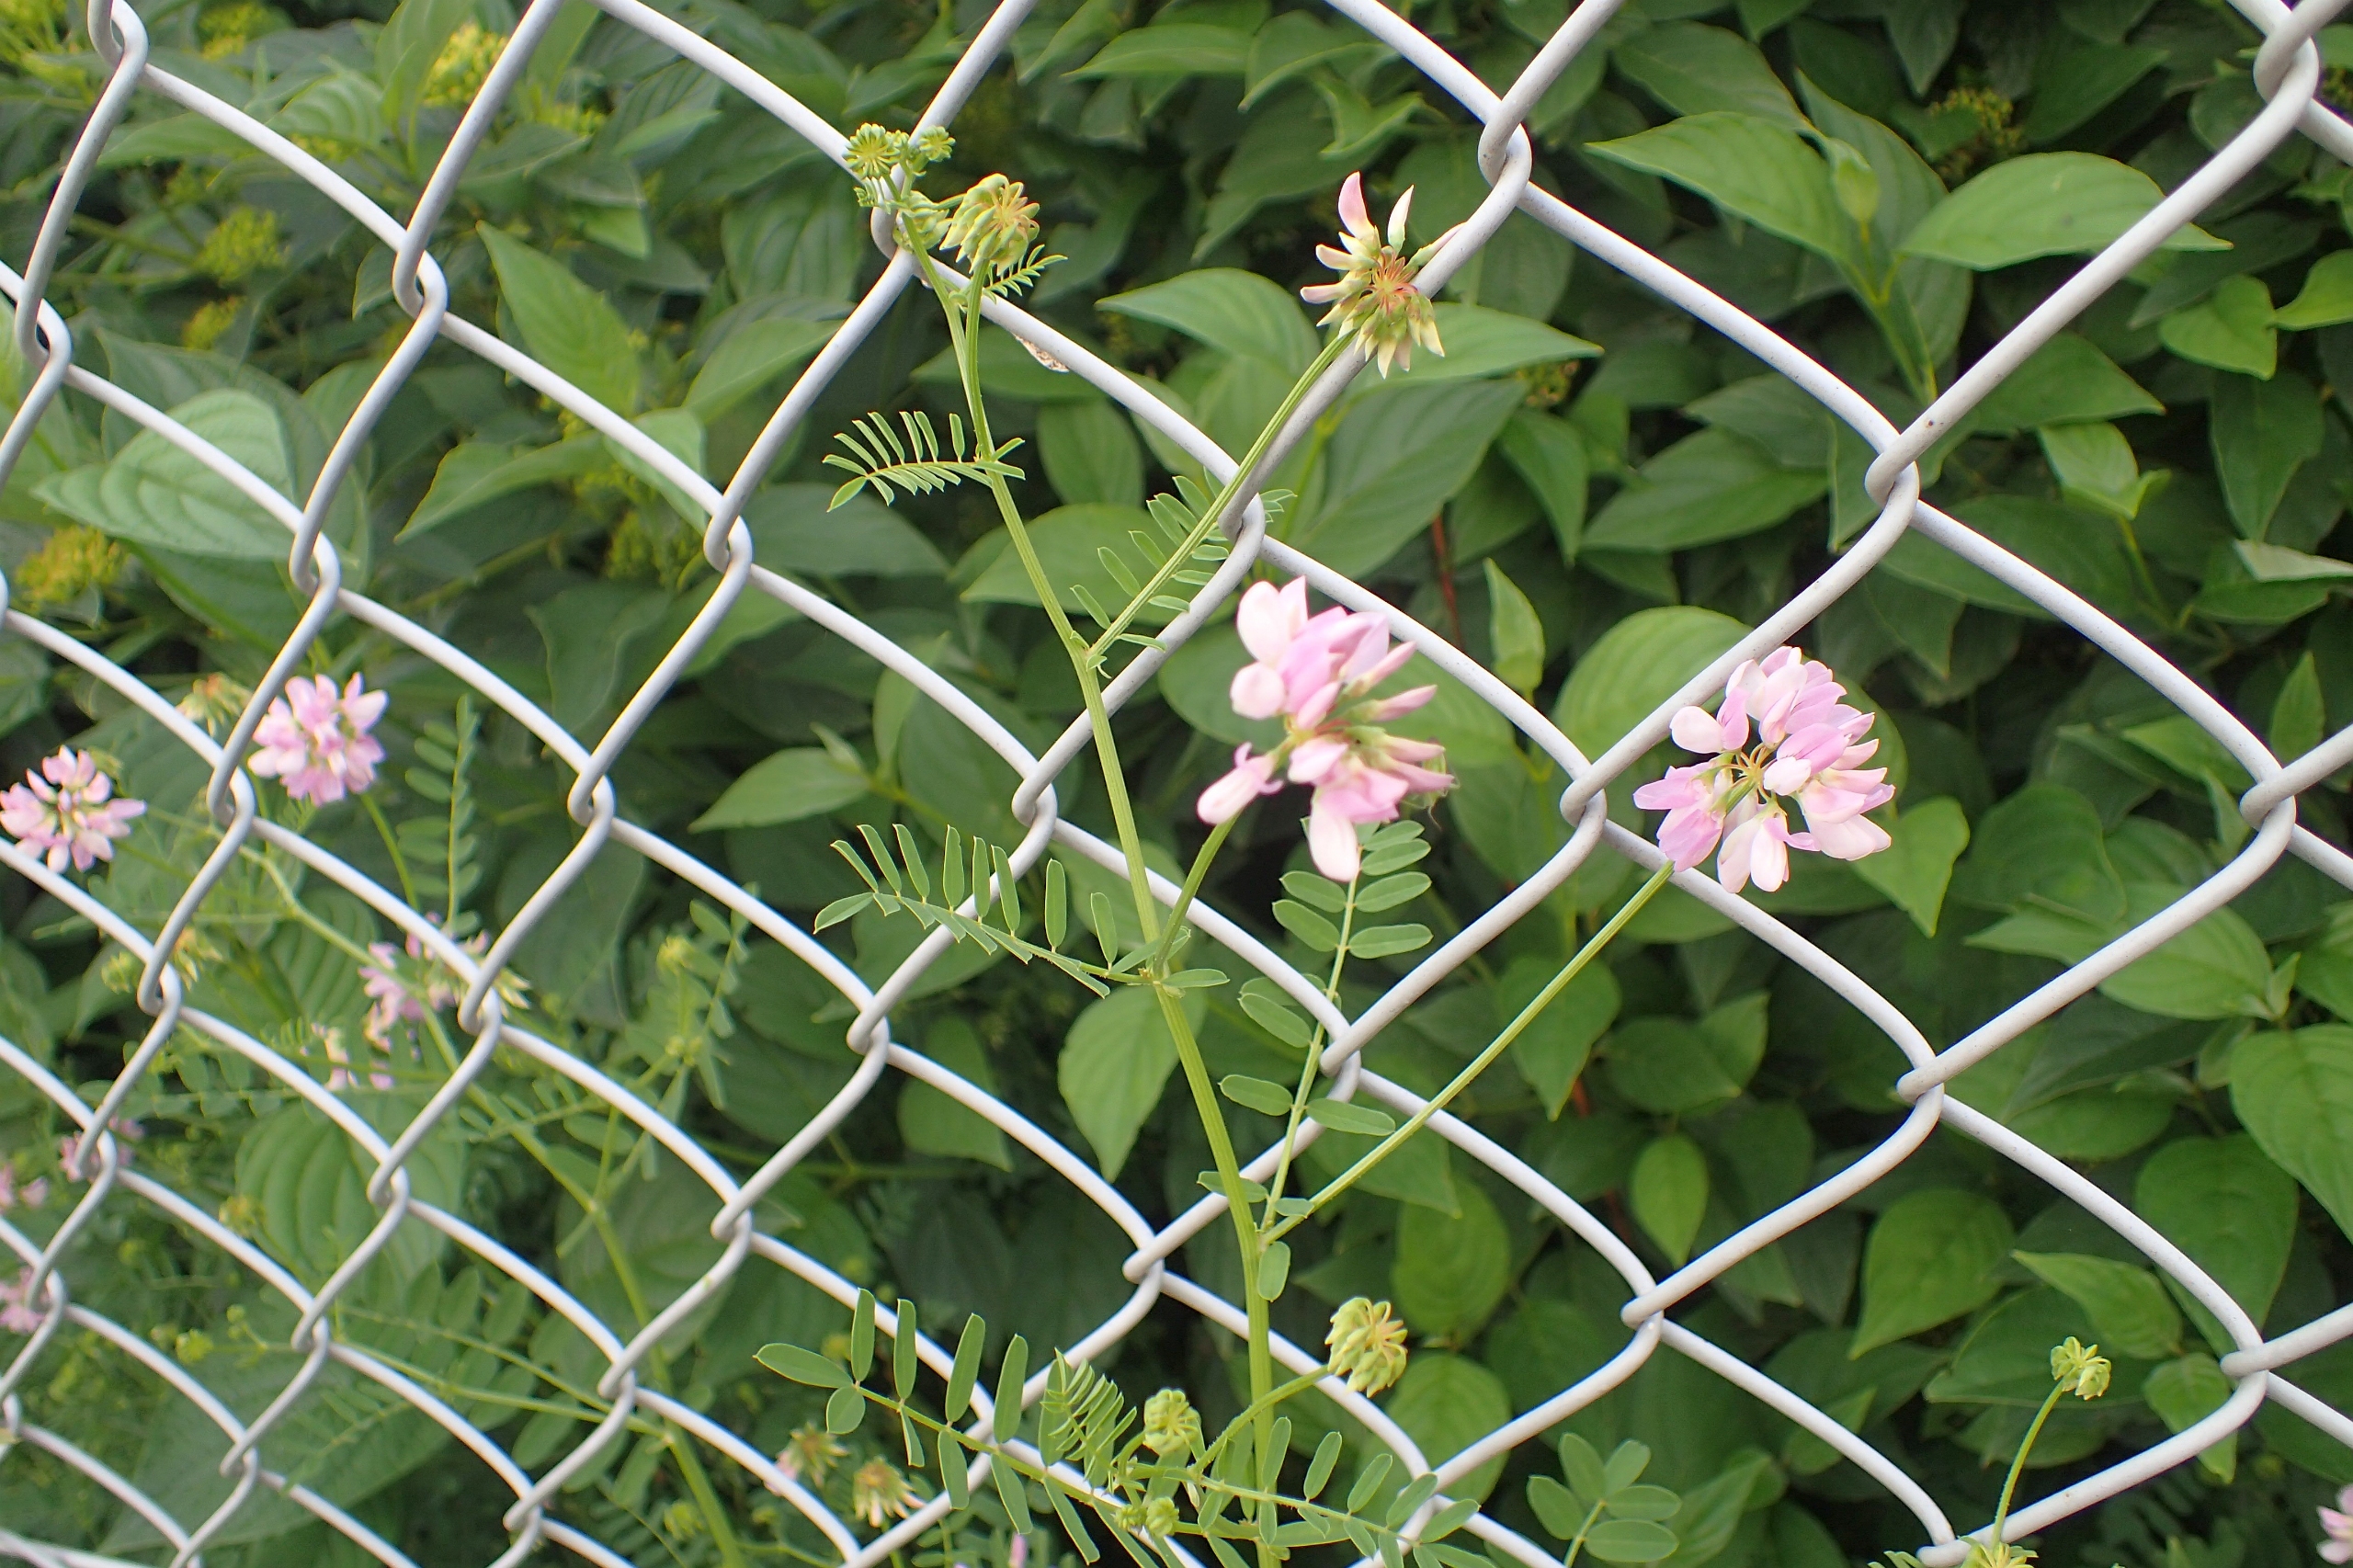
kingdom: Plantae
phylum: Tracheophyta
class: Magnoliopsida
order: Fabales
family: Fabaceae
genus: Coronilla
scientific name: Coronilla varia
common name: Giftig kronvikke
